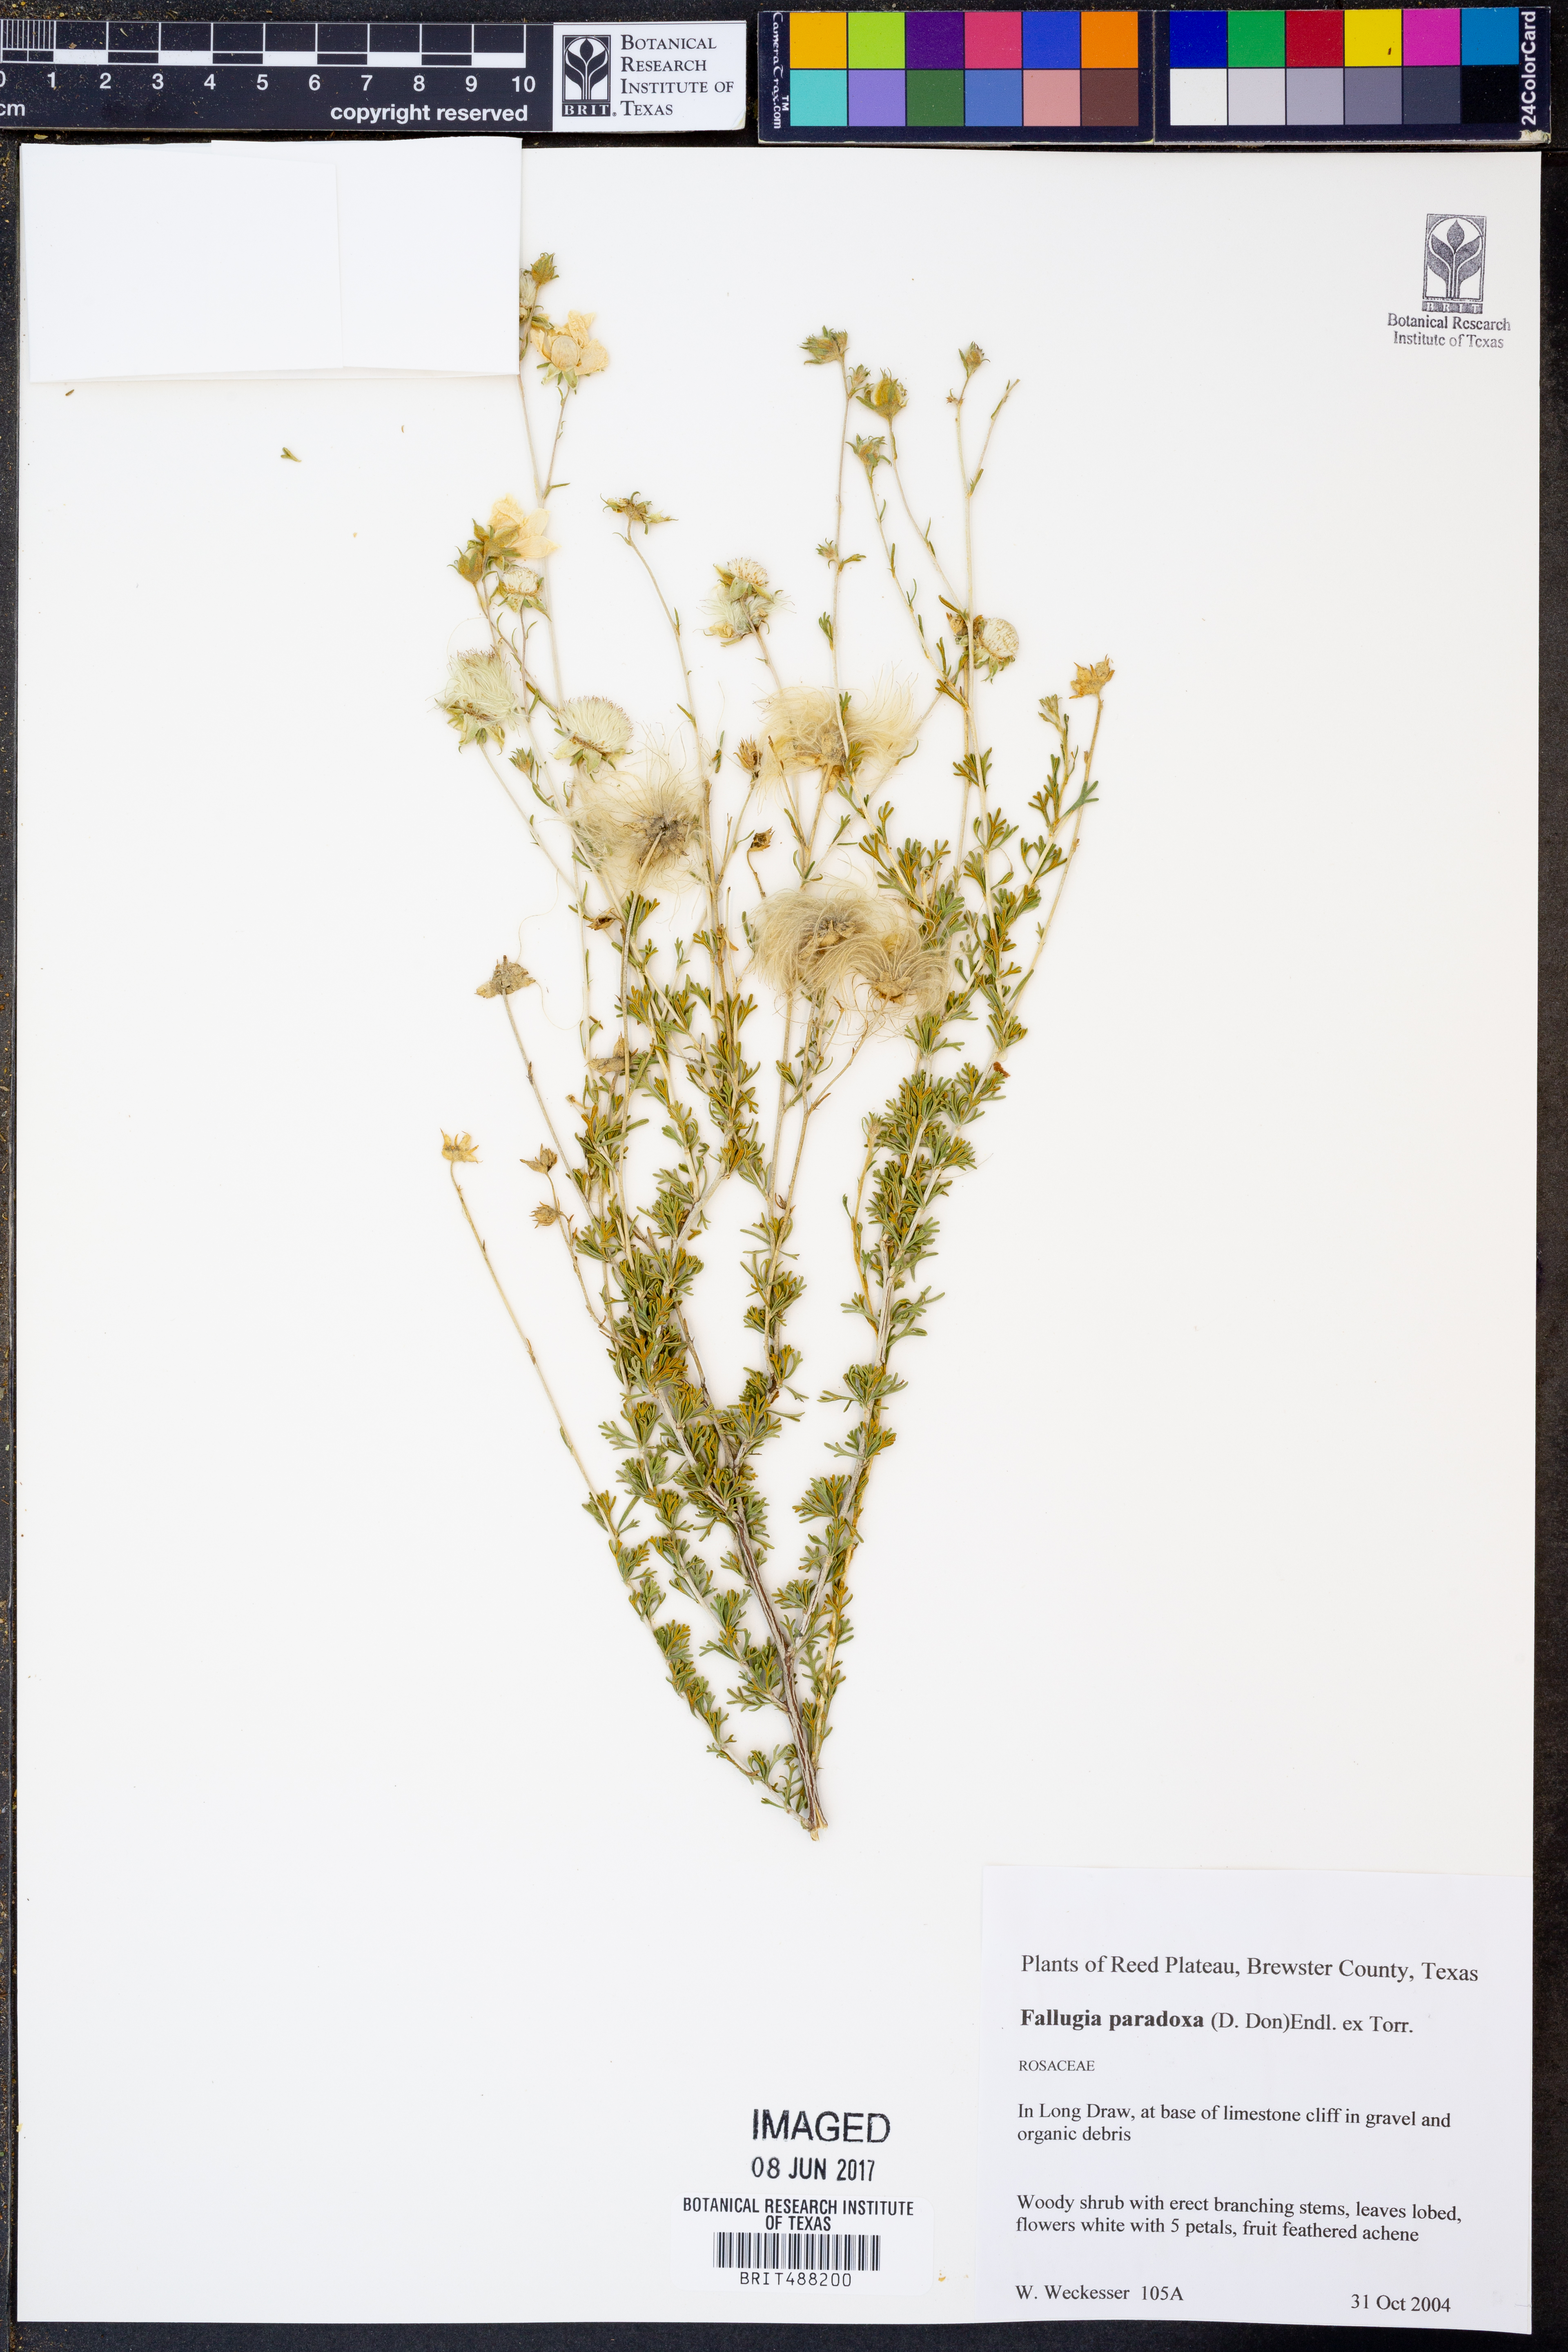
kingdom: Plantae
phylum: Tracheophyta
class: Magnoliopsida
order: Rosales
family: Rosaceae
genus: Fallugia
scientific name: Fallugia paradoxa
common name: Apache-plume
